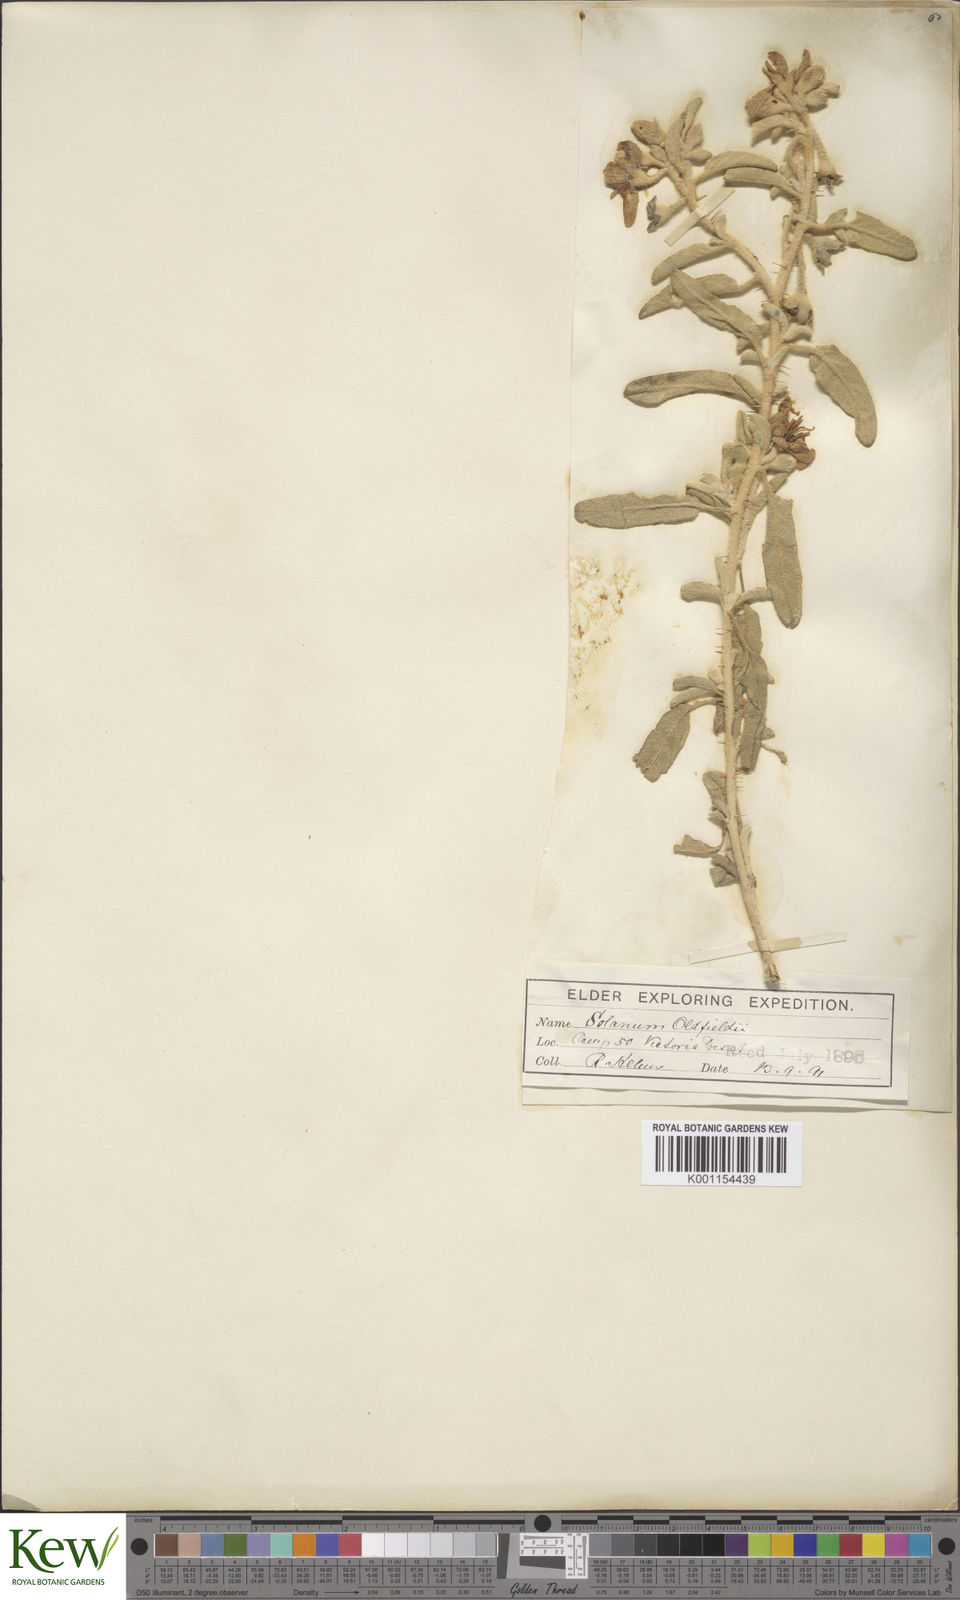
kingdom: Plantae
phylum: Tracheophyta
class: Magnoliopsida
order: Solanales
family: Solanaceae
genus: Solanum
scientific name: Solanum oldfieldii
